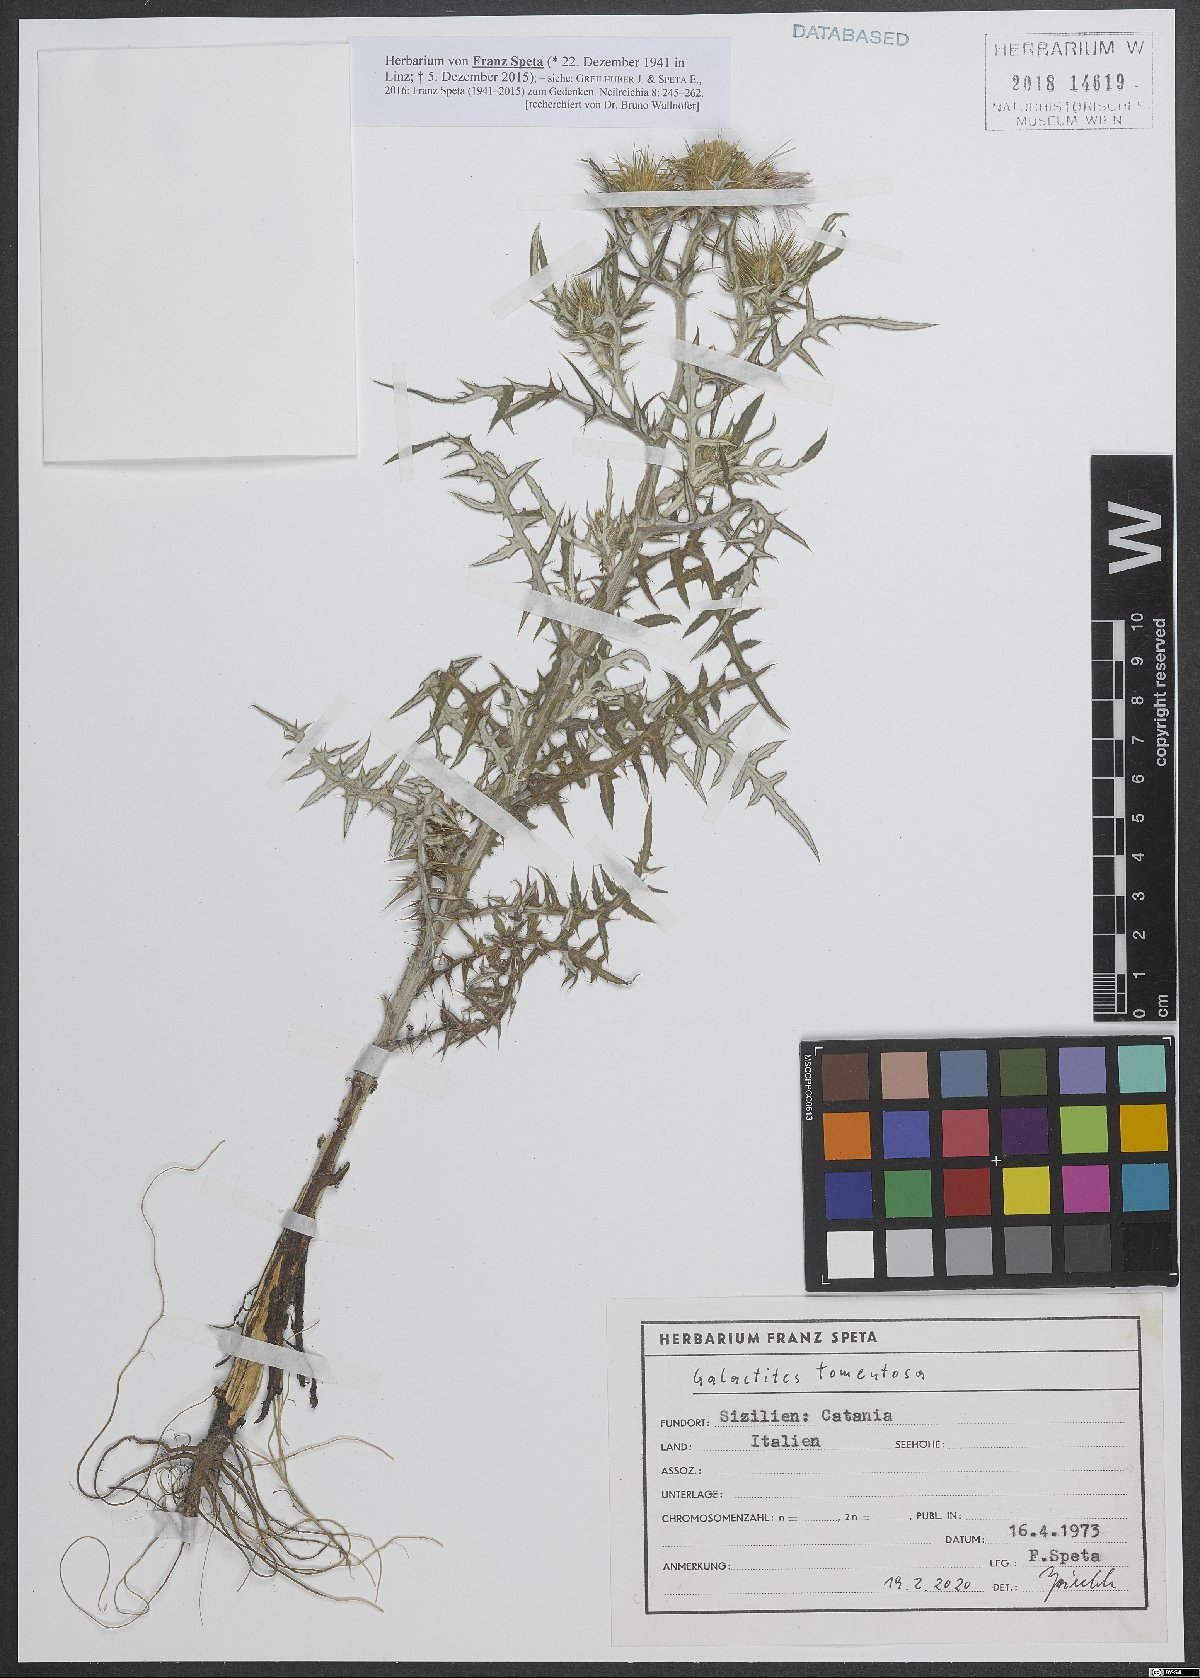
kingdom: Plantae
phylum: Tracheophyta
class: Magnoliopsida
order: Asterales
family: Asteraceae
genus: Galactites
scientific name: Galactites tomentosa
